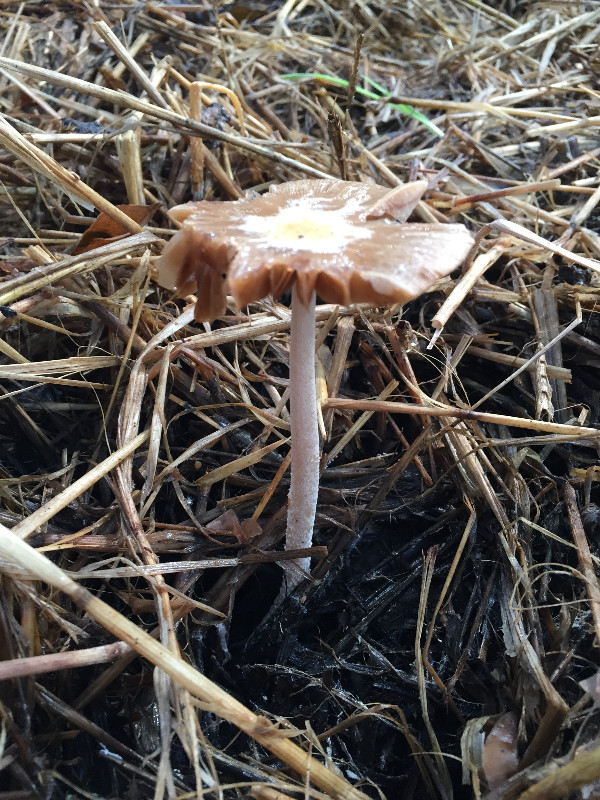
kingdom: Fungi
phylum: Basidiomycota
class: Agaricomycetes
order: Agaricales
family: Bolbitiaceae
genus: Bolbitius
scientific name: Bolbitius
